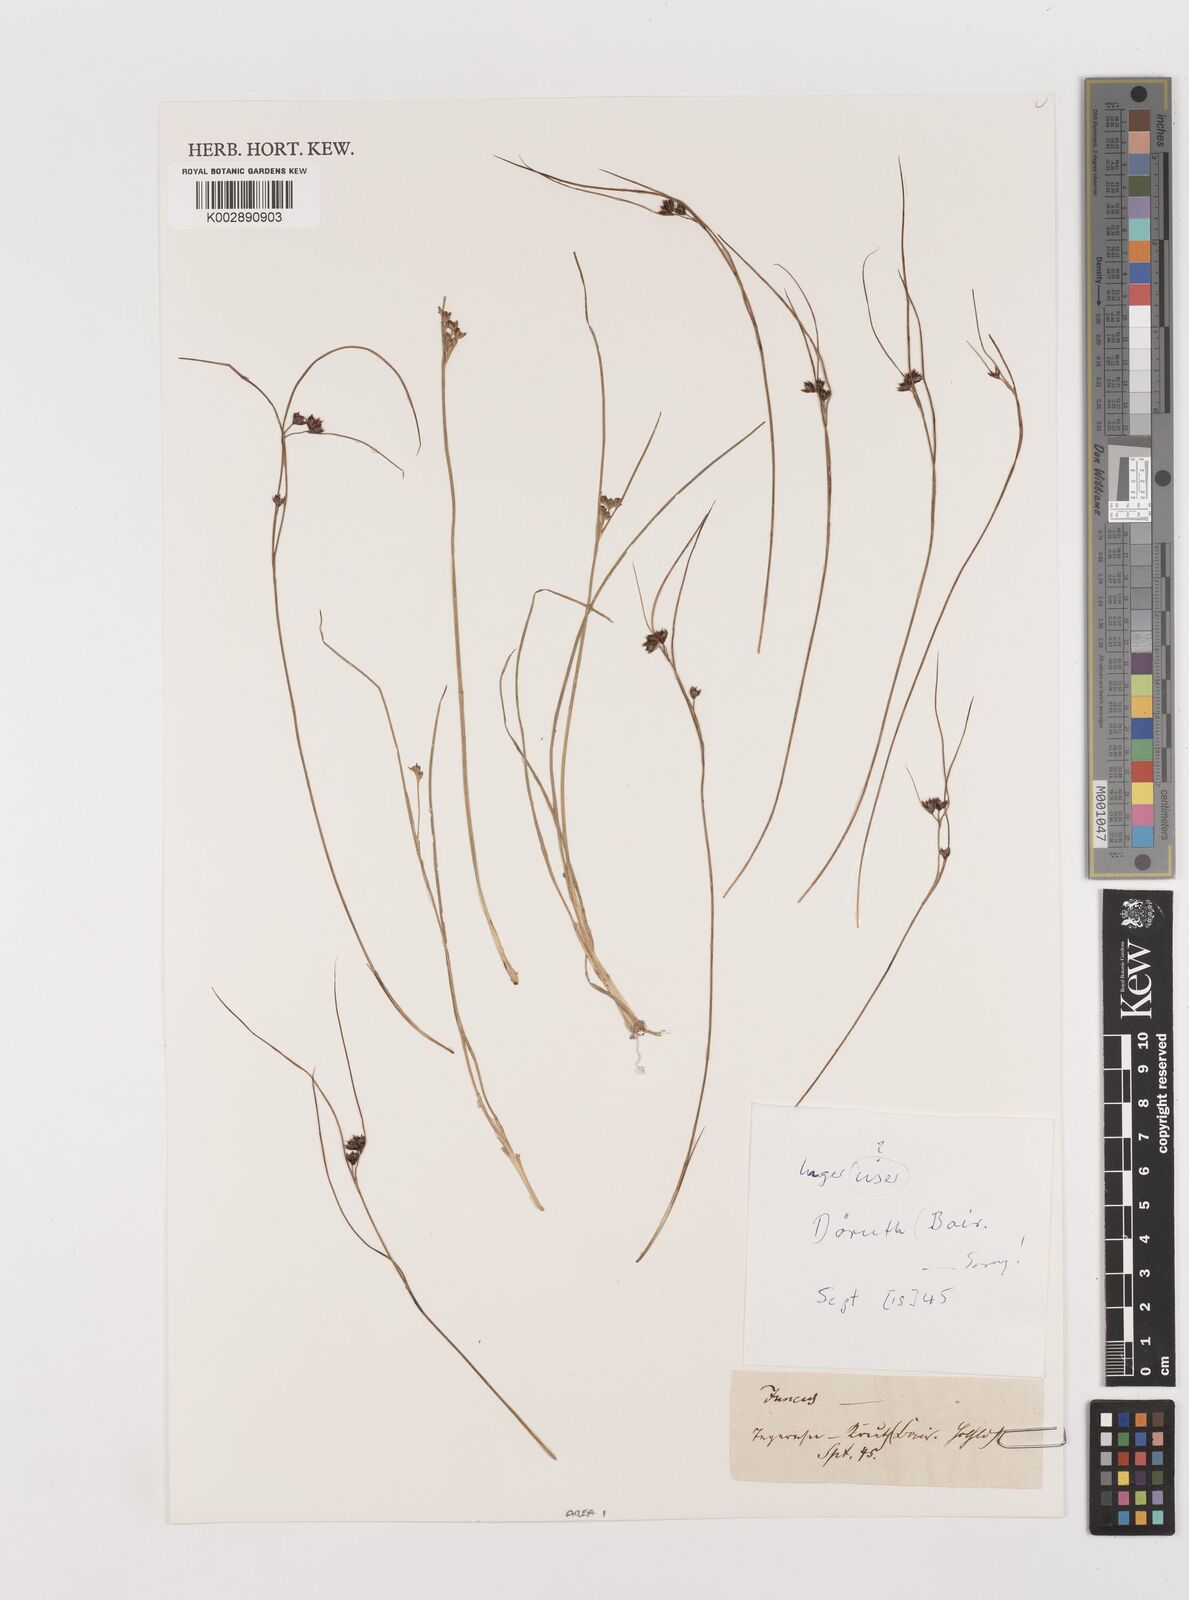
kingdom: Plantae
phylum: Tracheophyta
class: Liliopsida
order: Poales
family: Juncaceae
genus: Juncus
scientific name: Juncus
